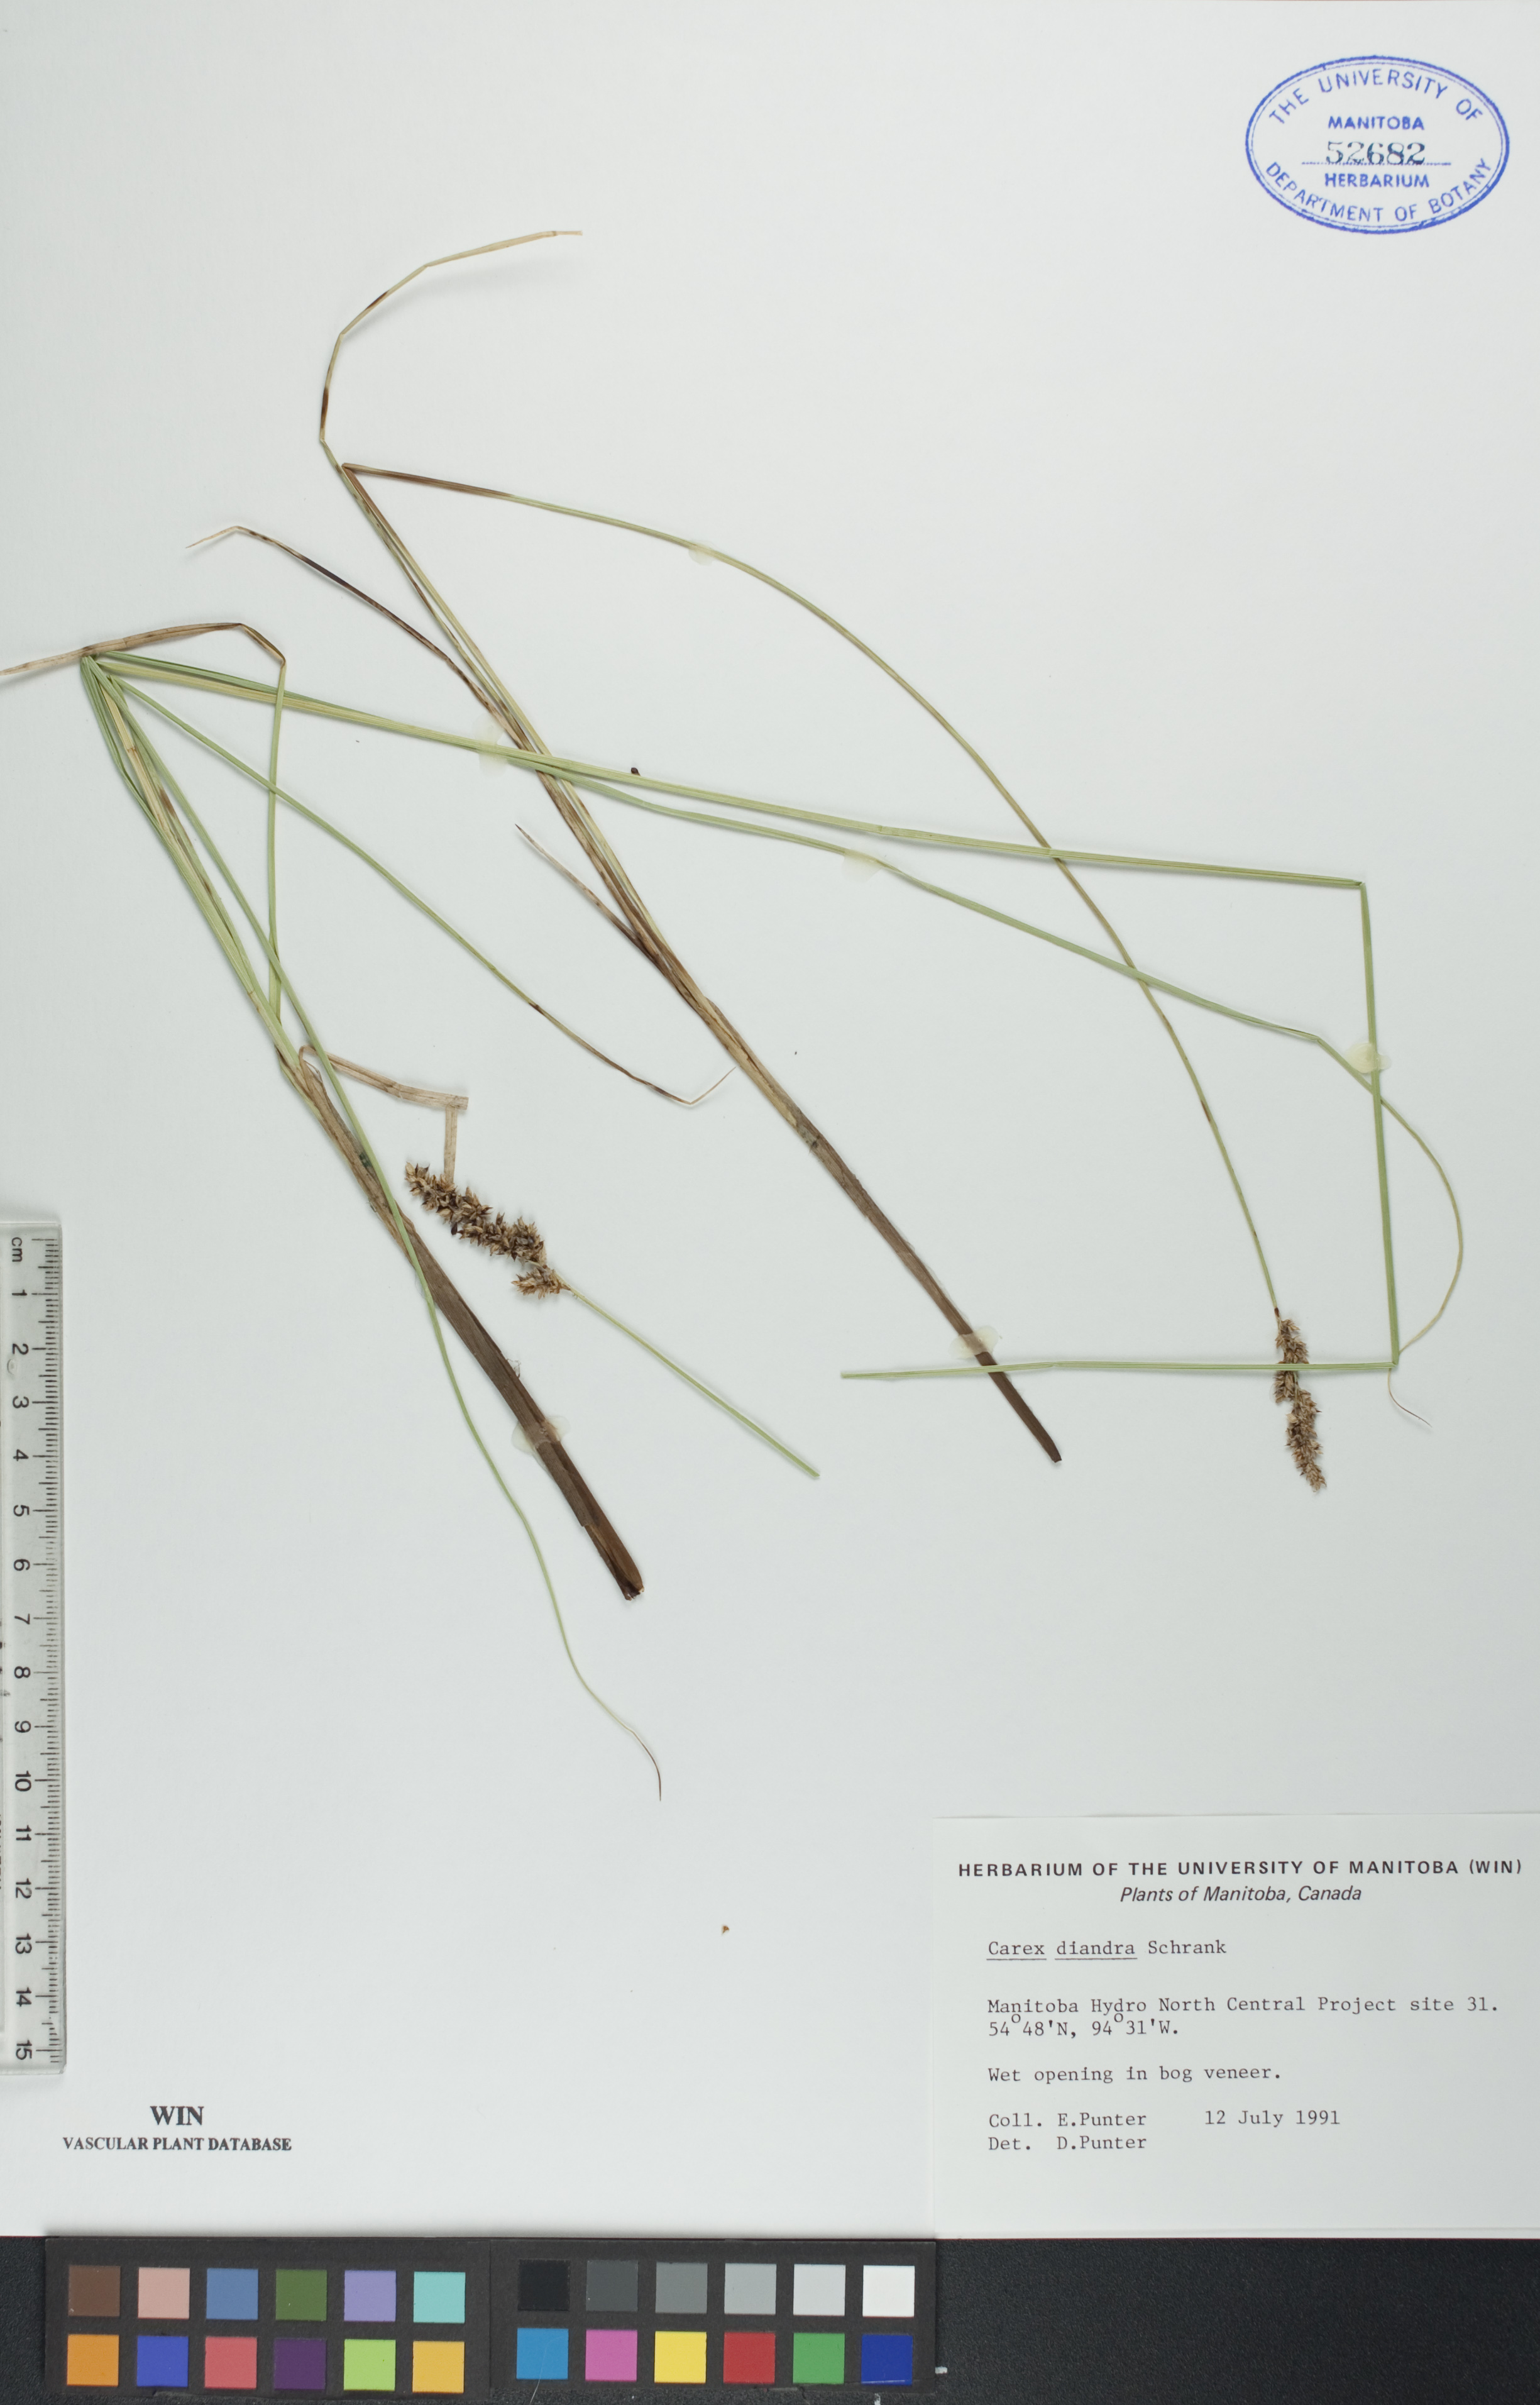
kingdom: Plantae
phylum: Tracheophyta
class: Liliopsida
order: Poales
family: Cyperaceae
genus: Carex
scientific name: Carex diandra
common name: Lesser tussock-sedge
